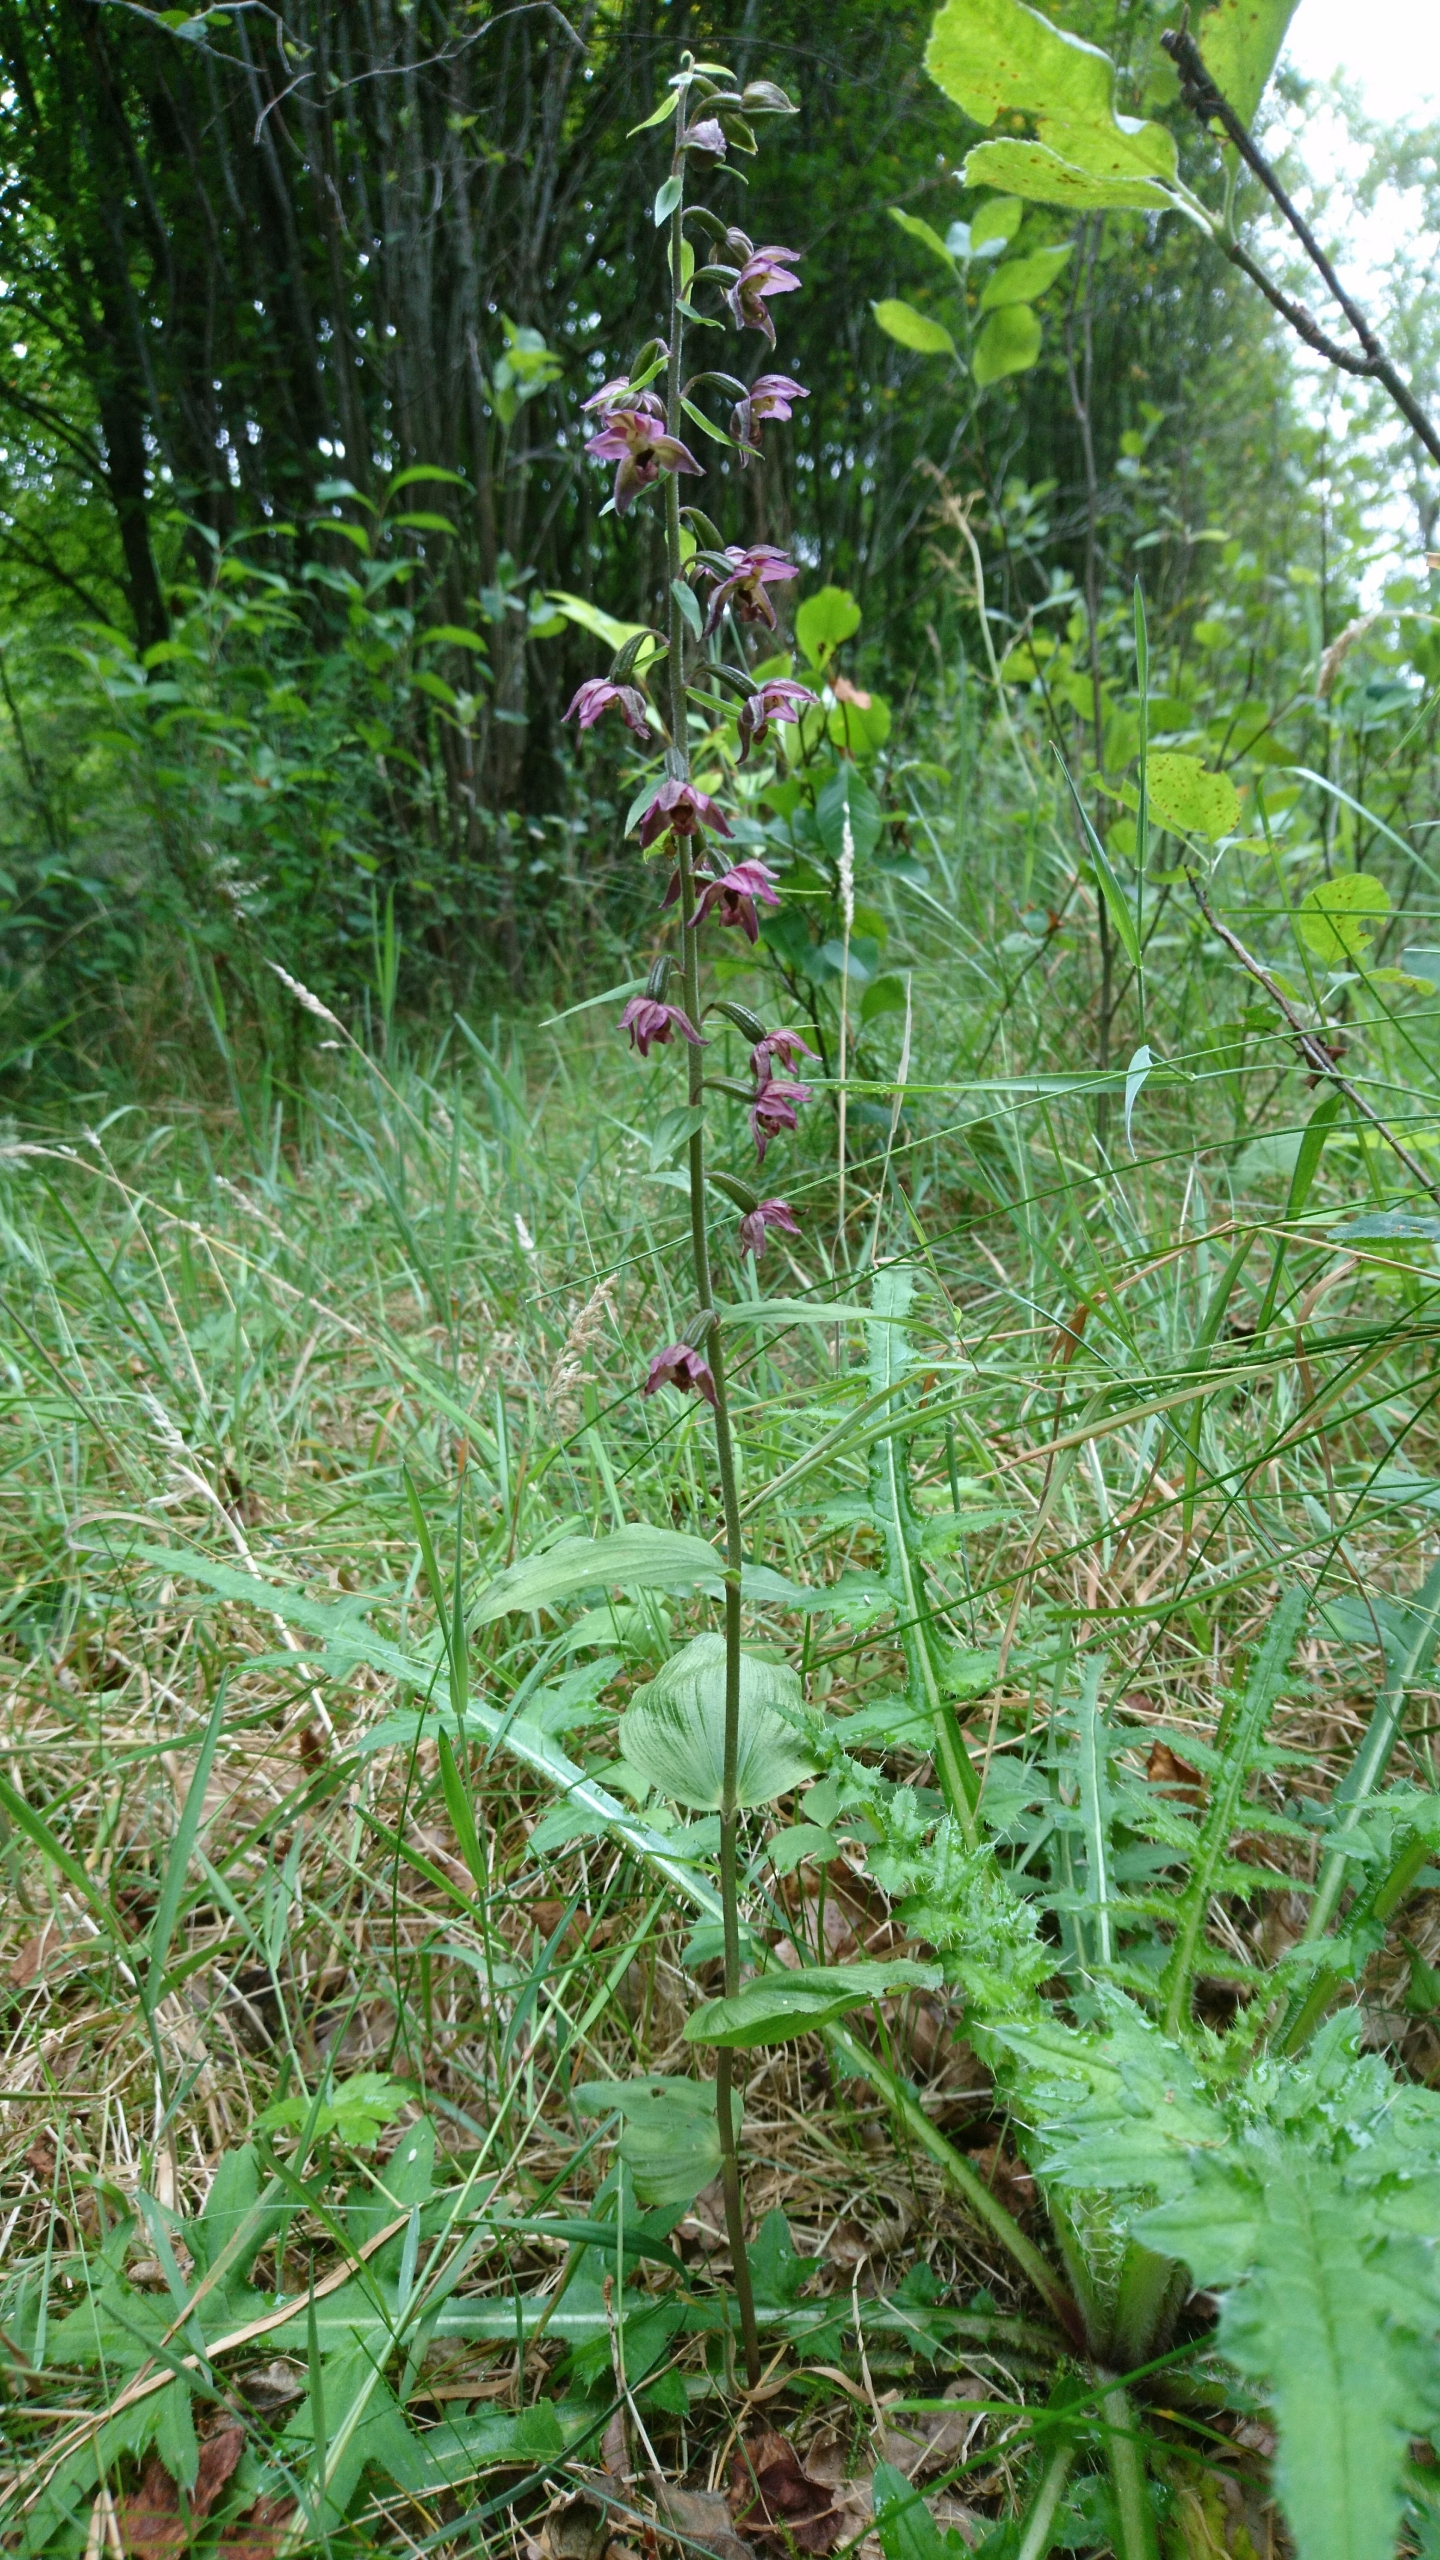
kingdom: Plantae
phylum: Tracheophyta
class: Liliopsida
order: Asparagales
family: Orchidaceae
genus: Epipactis
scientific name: Epipactis helleborine
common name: Skov-hullæbe
